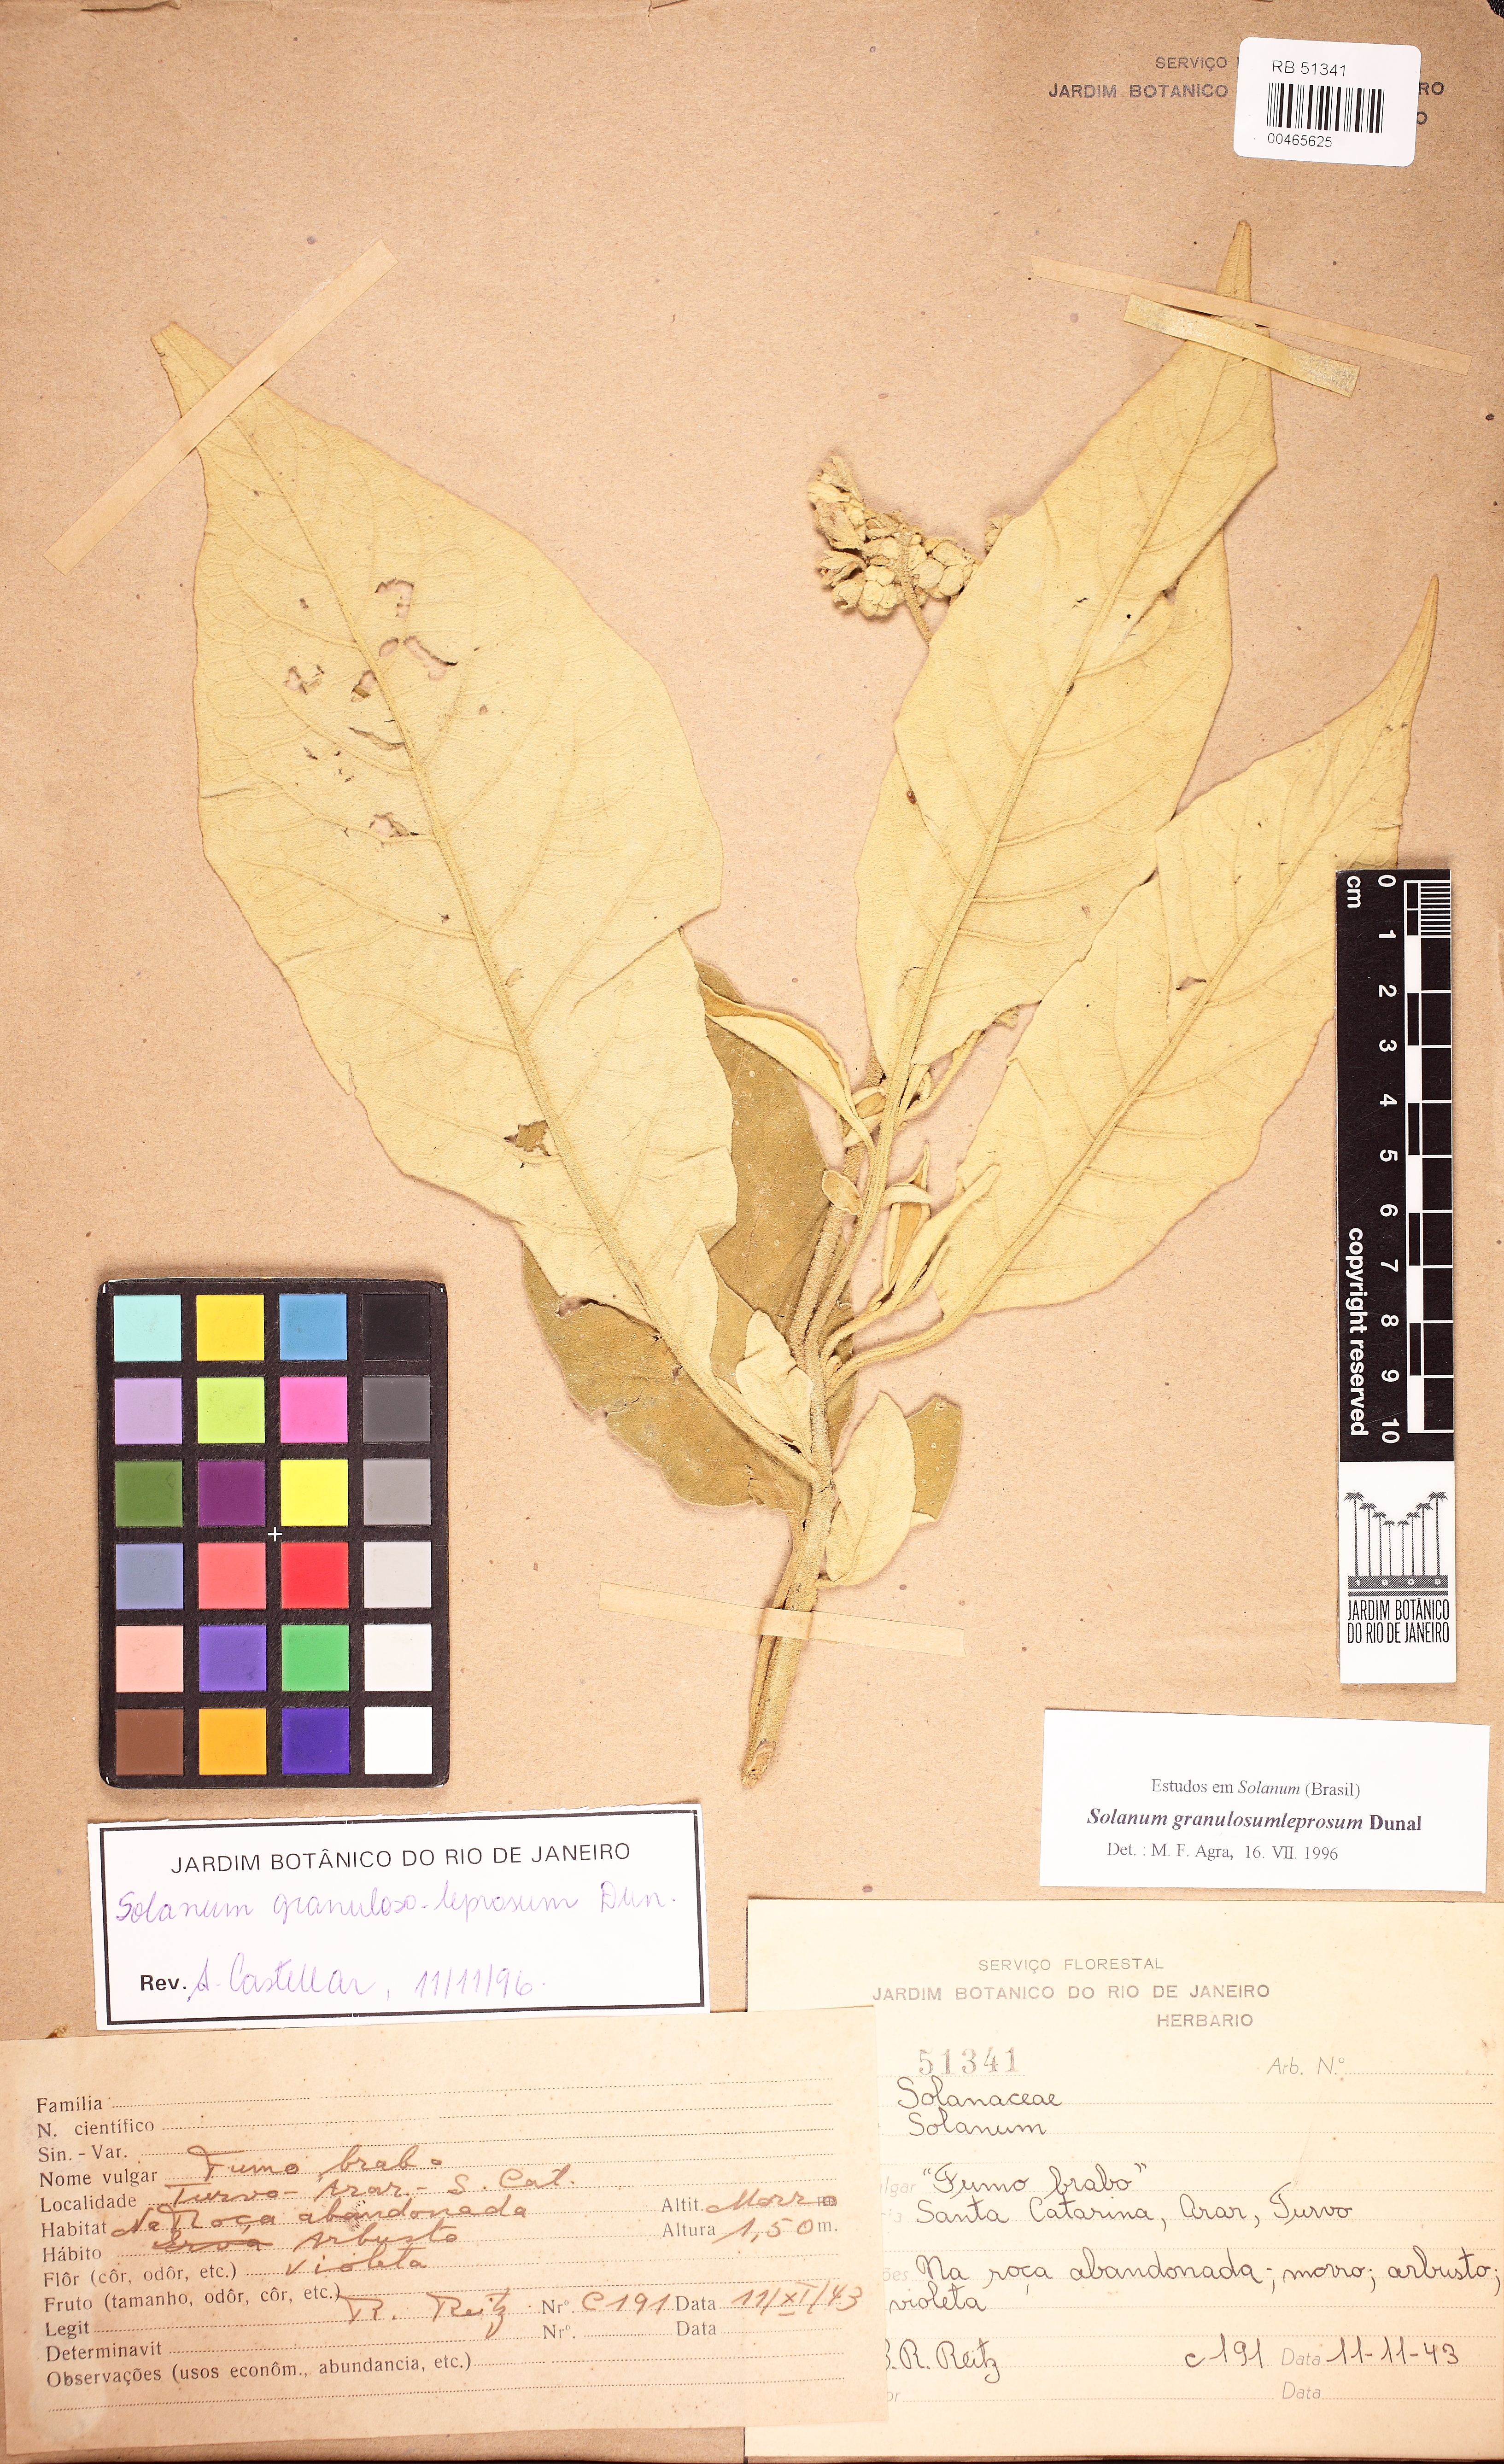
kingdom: Plantae
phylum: Tracheophyta
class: Magnoliopsida
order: Solanales
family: Solanaceae
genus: Solanum
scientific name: Solanum granulosoleprosum
